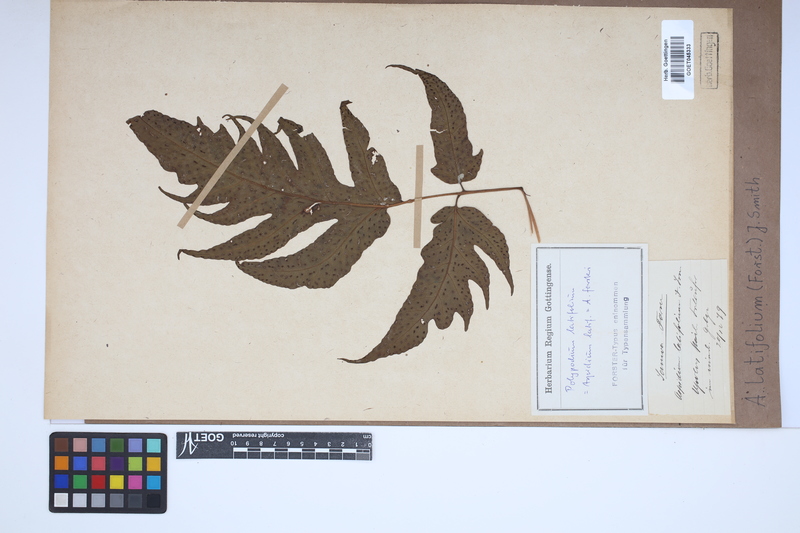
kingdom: Plantae
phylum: Tracheophyta
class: Polypodiopsida
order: Polypodiales
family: Tectariaceae
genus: Tectaria
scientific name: Tectaria latifolia
